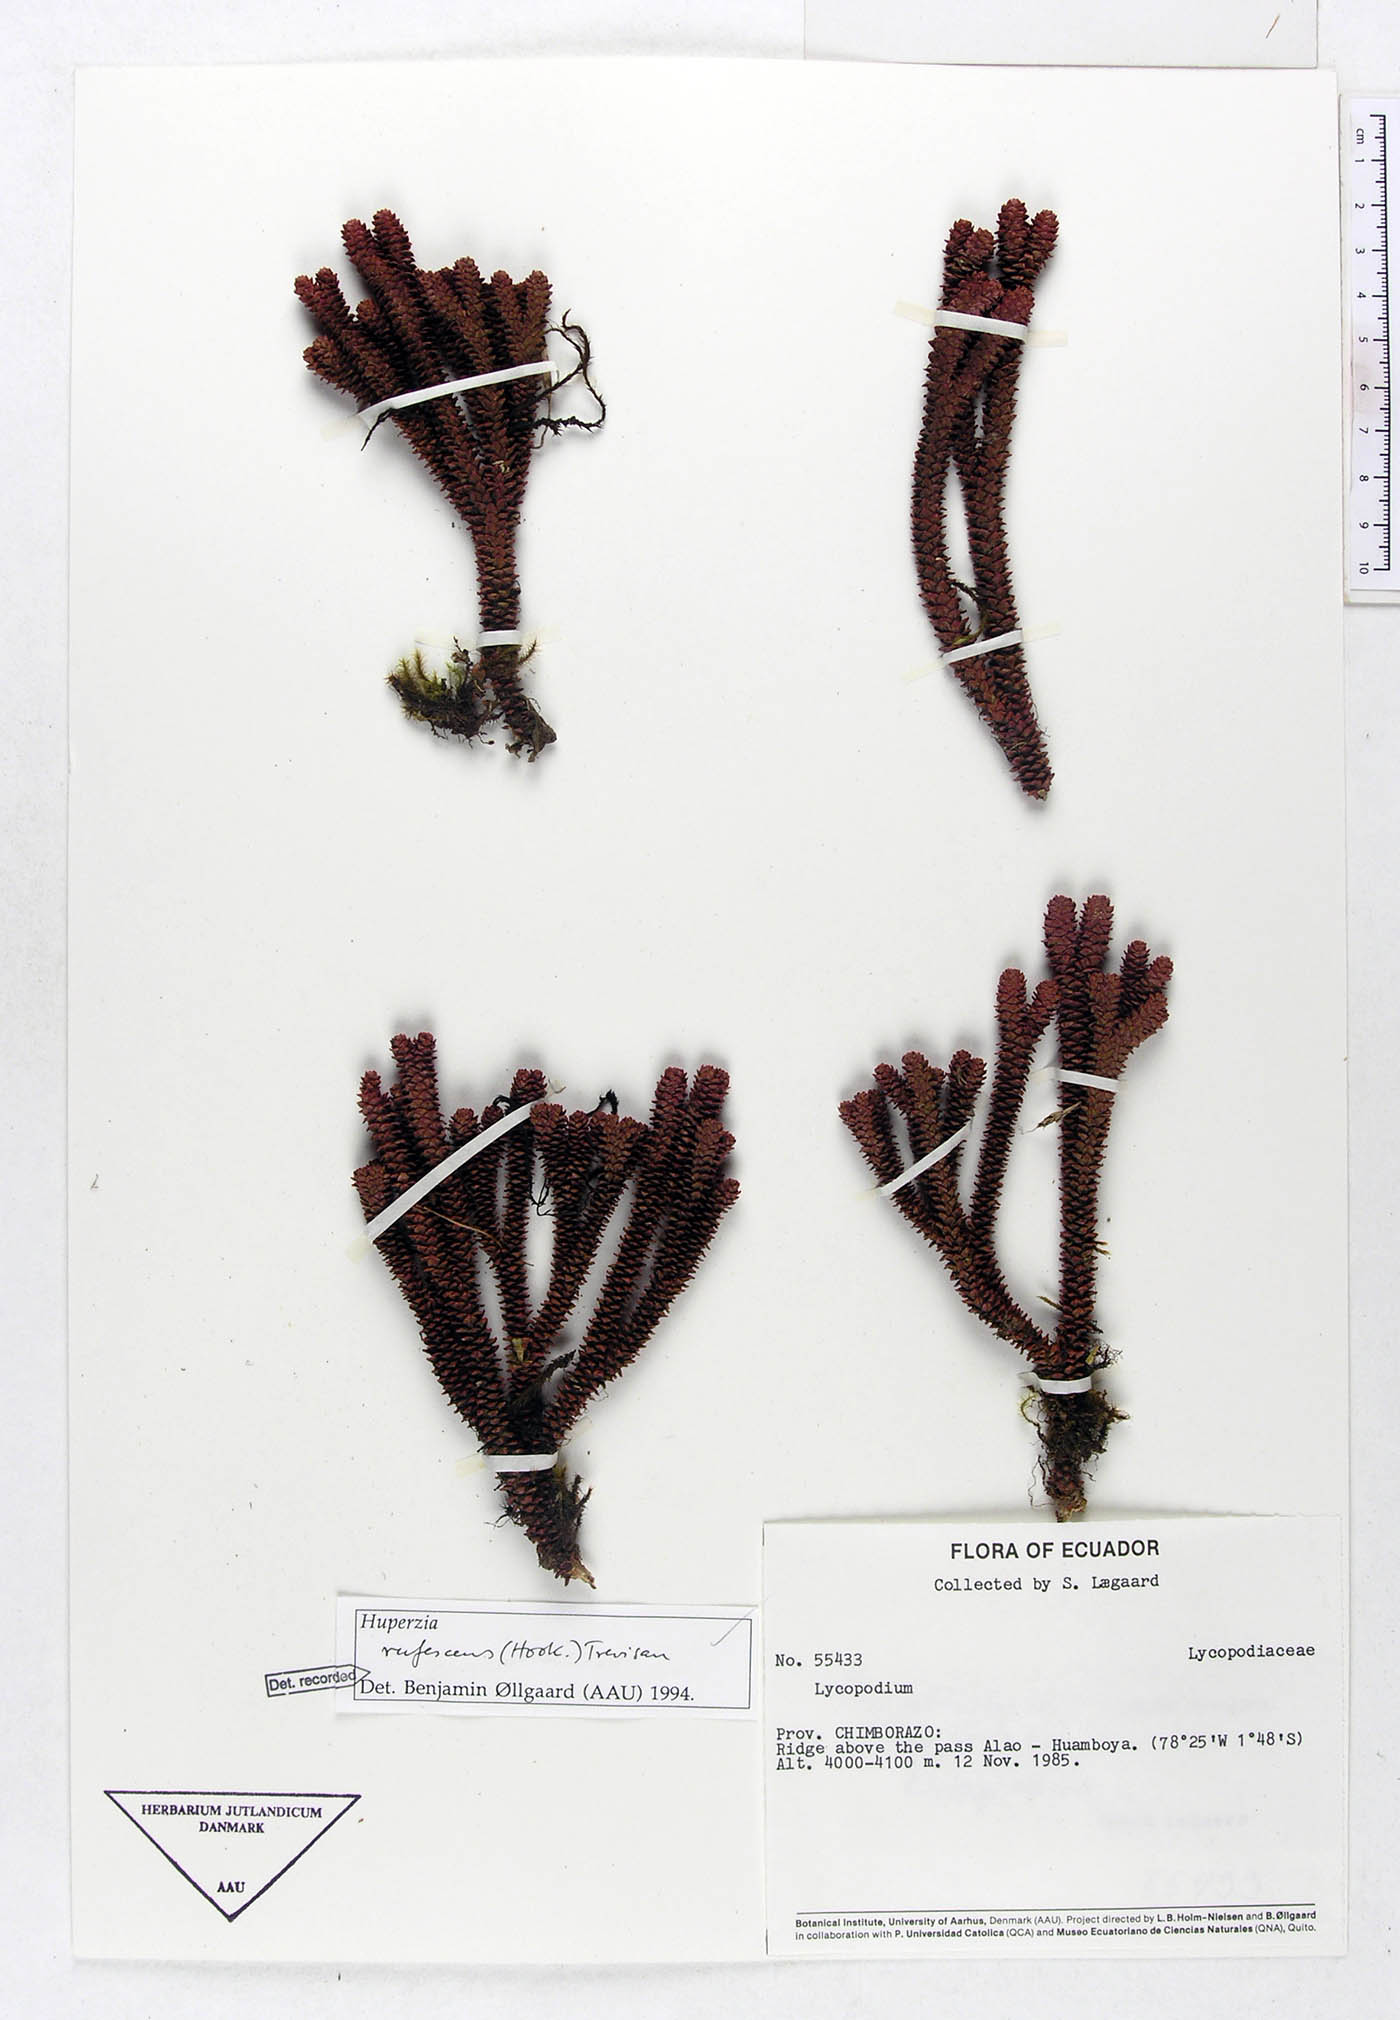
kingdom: Plantae
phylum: Tracheophyta
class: Lycopodiopsida
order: Lycopodiales
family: Lycopodiaceae
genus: Phlegmariurus
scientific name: Phlegmariurus rufescens
